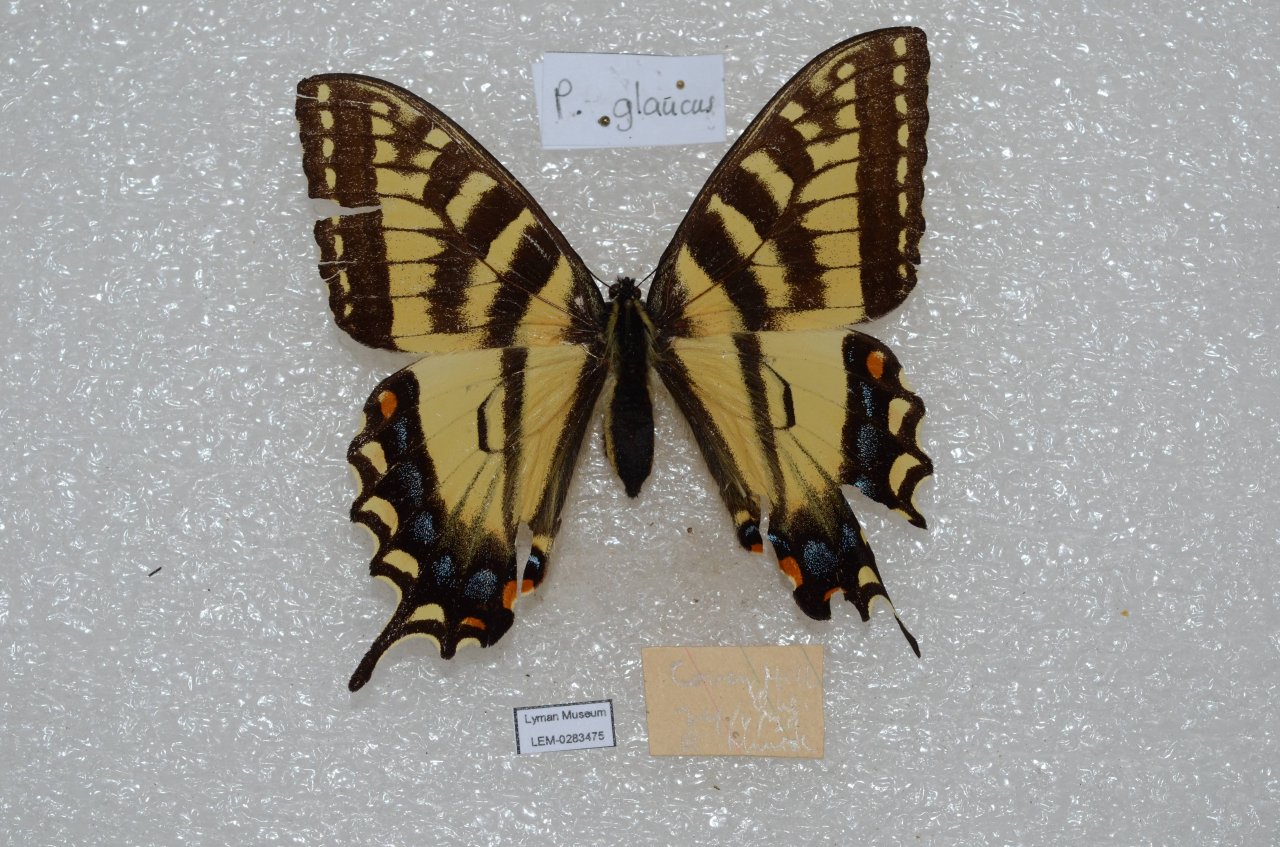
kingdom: Animalia
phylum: Arthropoda
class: Insecta
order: Lepidoptera
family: Papilionidae
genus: Pterourus
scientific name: Pterourus canadensis
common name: Canadian Tiger Swallowtail
